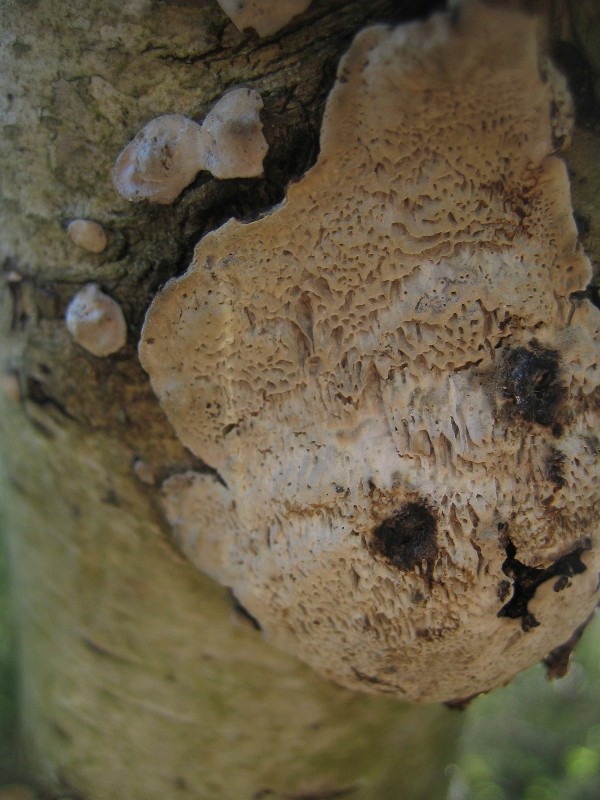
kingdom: Fungi
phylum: Basidiomycota
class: Agaricomycetes
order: Polyporales
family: Polyporaceae
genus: Podofomes
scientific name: Podofomes mollis
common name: blød begporesvamp
